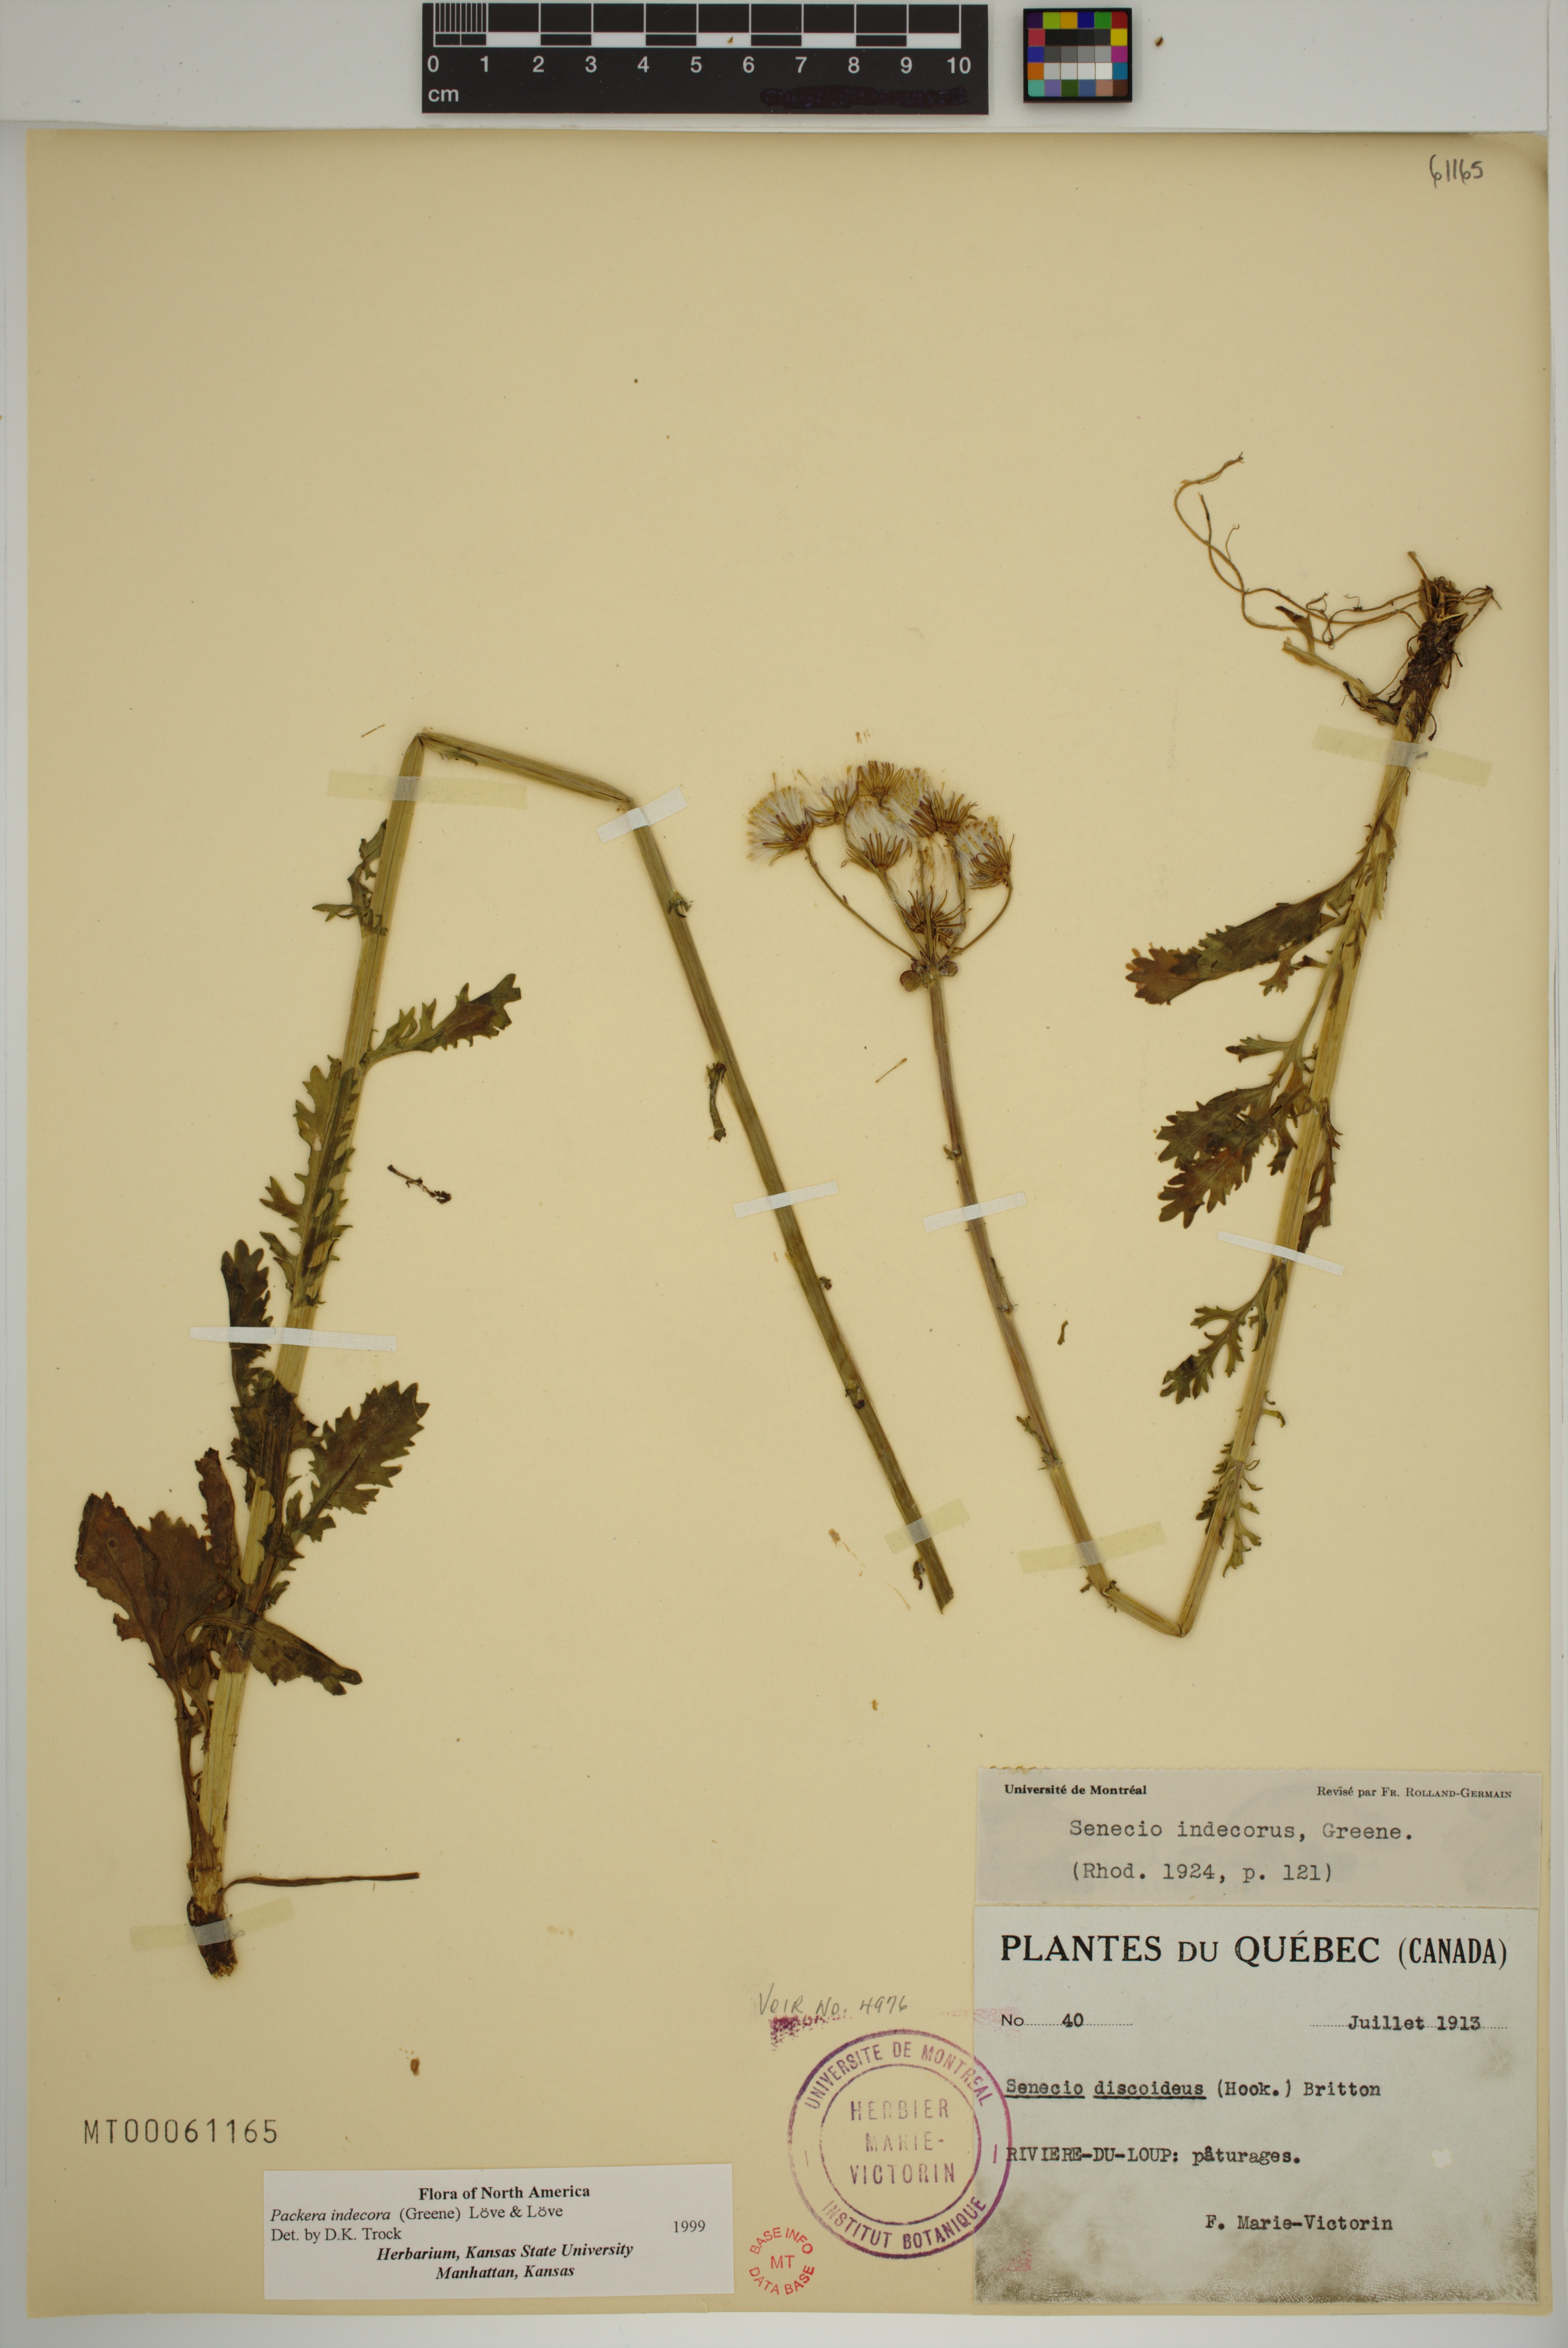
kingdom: Plantae
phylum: Tracheophyta
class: Magnoliopsida
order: Asterales
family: Asteraceae
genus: Packera
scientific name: Packera indecora
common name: Elegant groundsel
